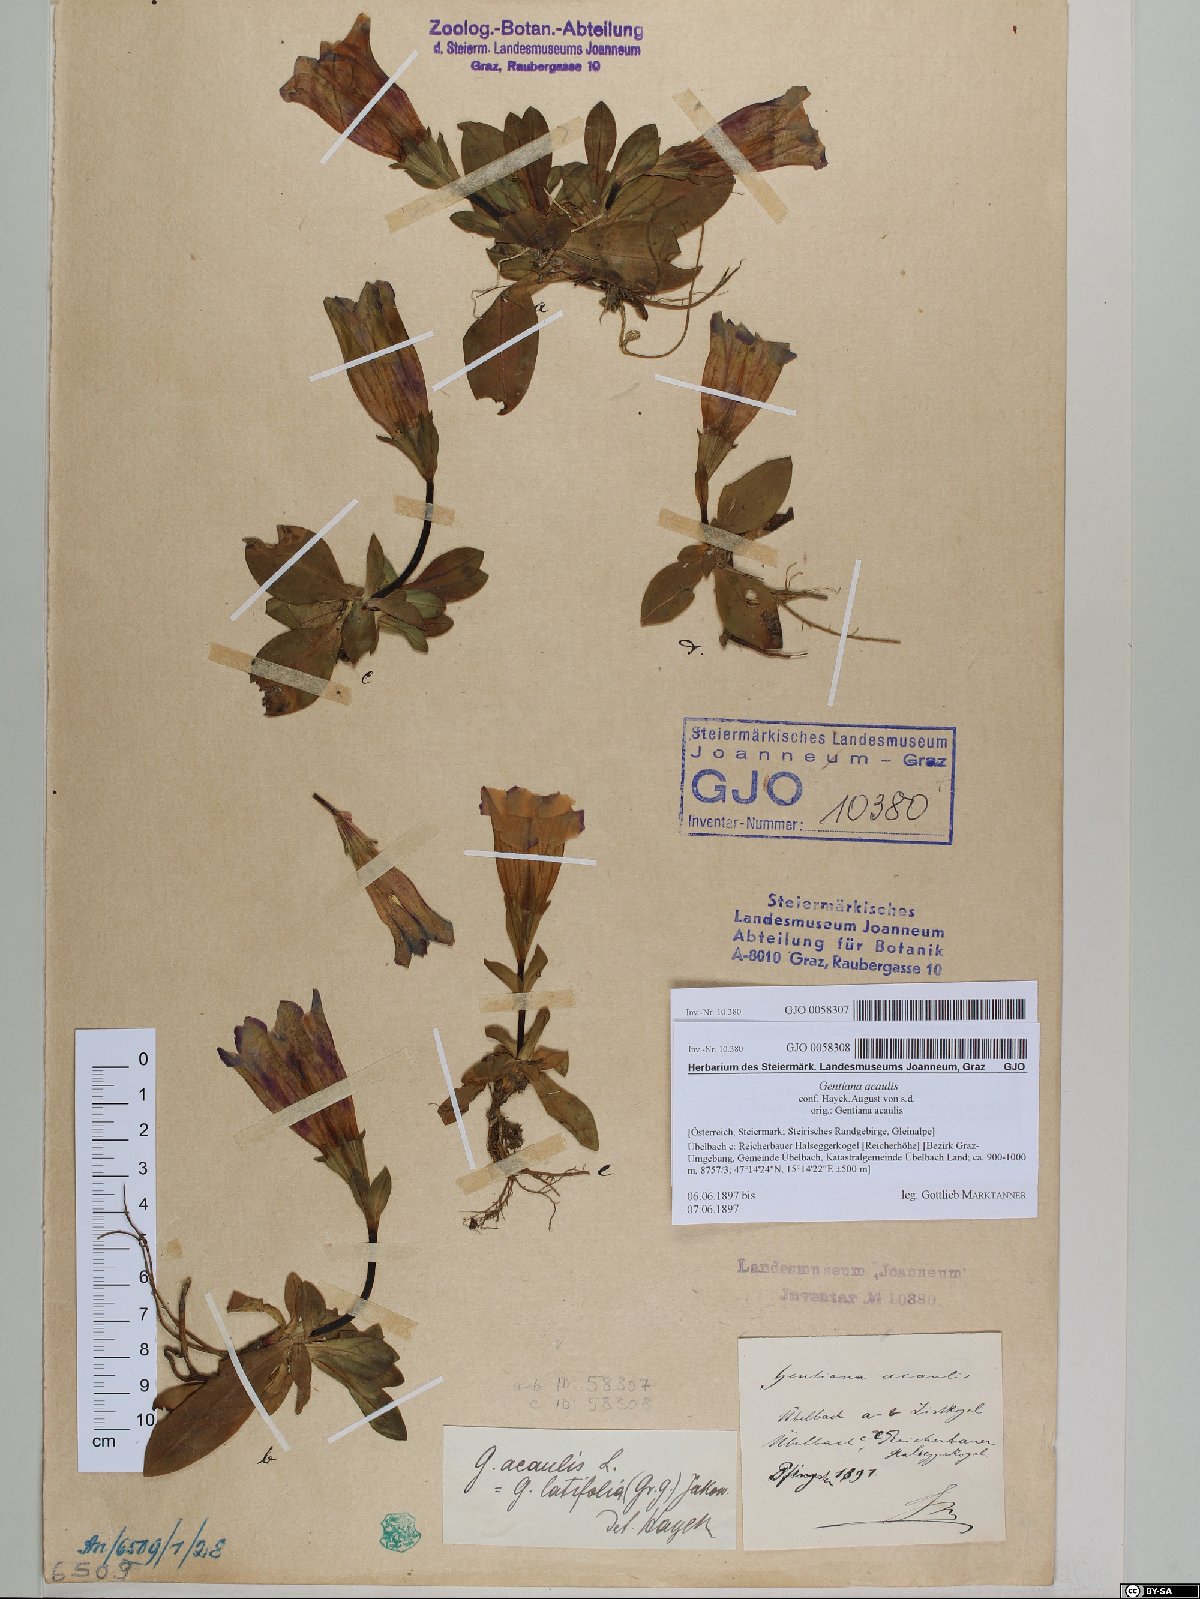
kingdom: Plantae
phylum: Tracheophyta
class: Magnoliopsida
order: Gentianales
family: Gentianaceae
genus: Gentiana
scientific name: Gentiana acaulis
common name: Trumpet gentian
